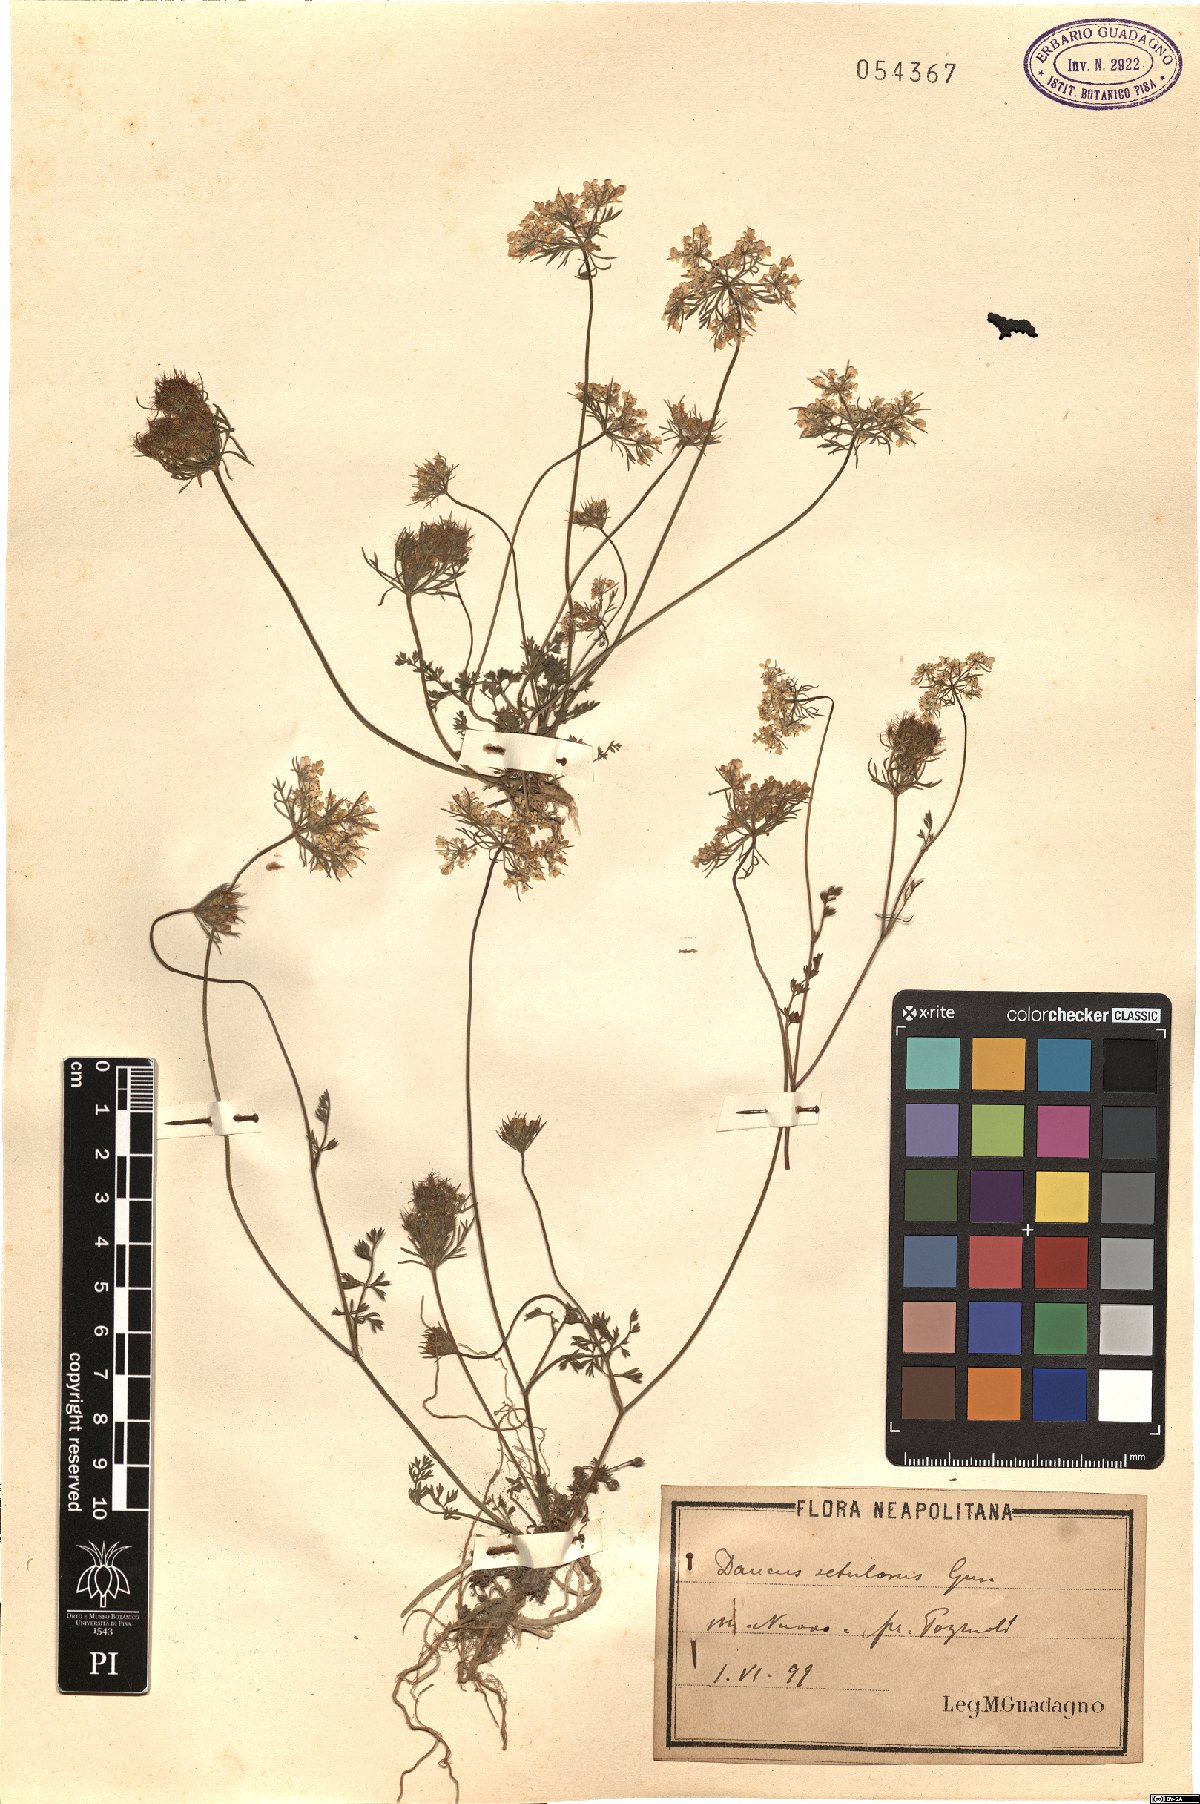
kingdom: Plantae
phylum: Tracheophyta
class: Magnoliopsida
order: Apiales
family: Apiaceae
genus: Daucus
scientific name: Daucus guttatus
